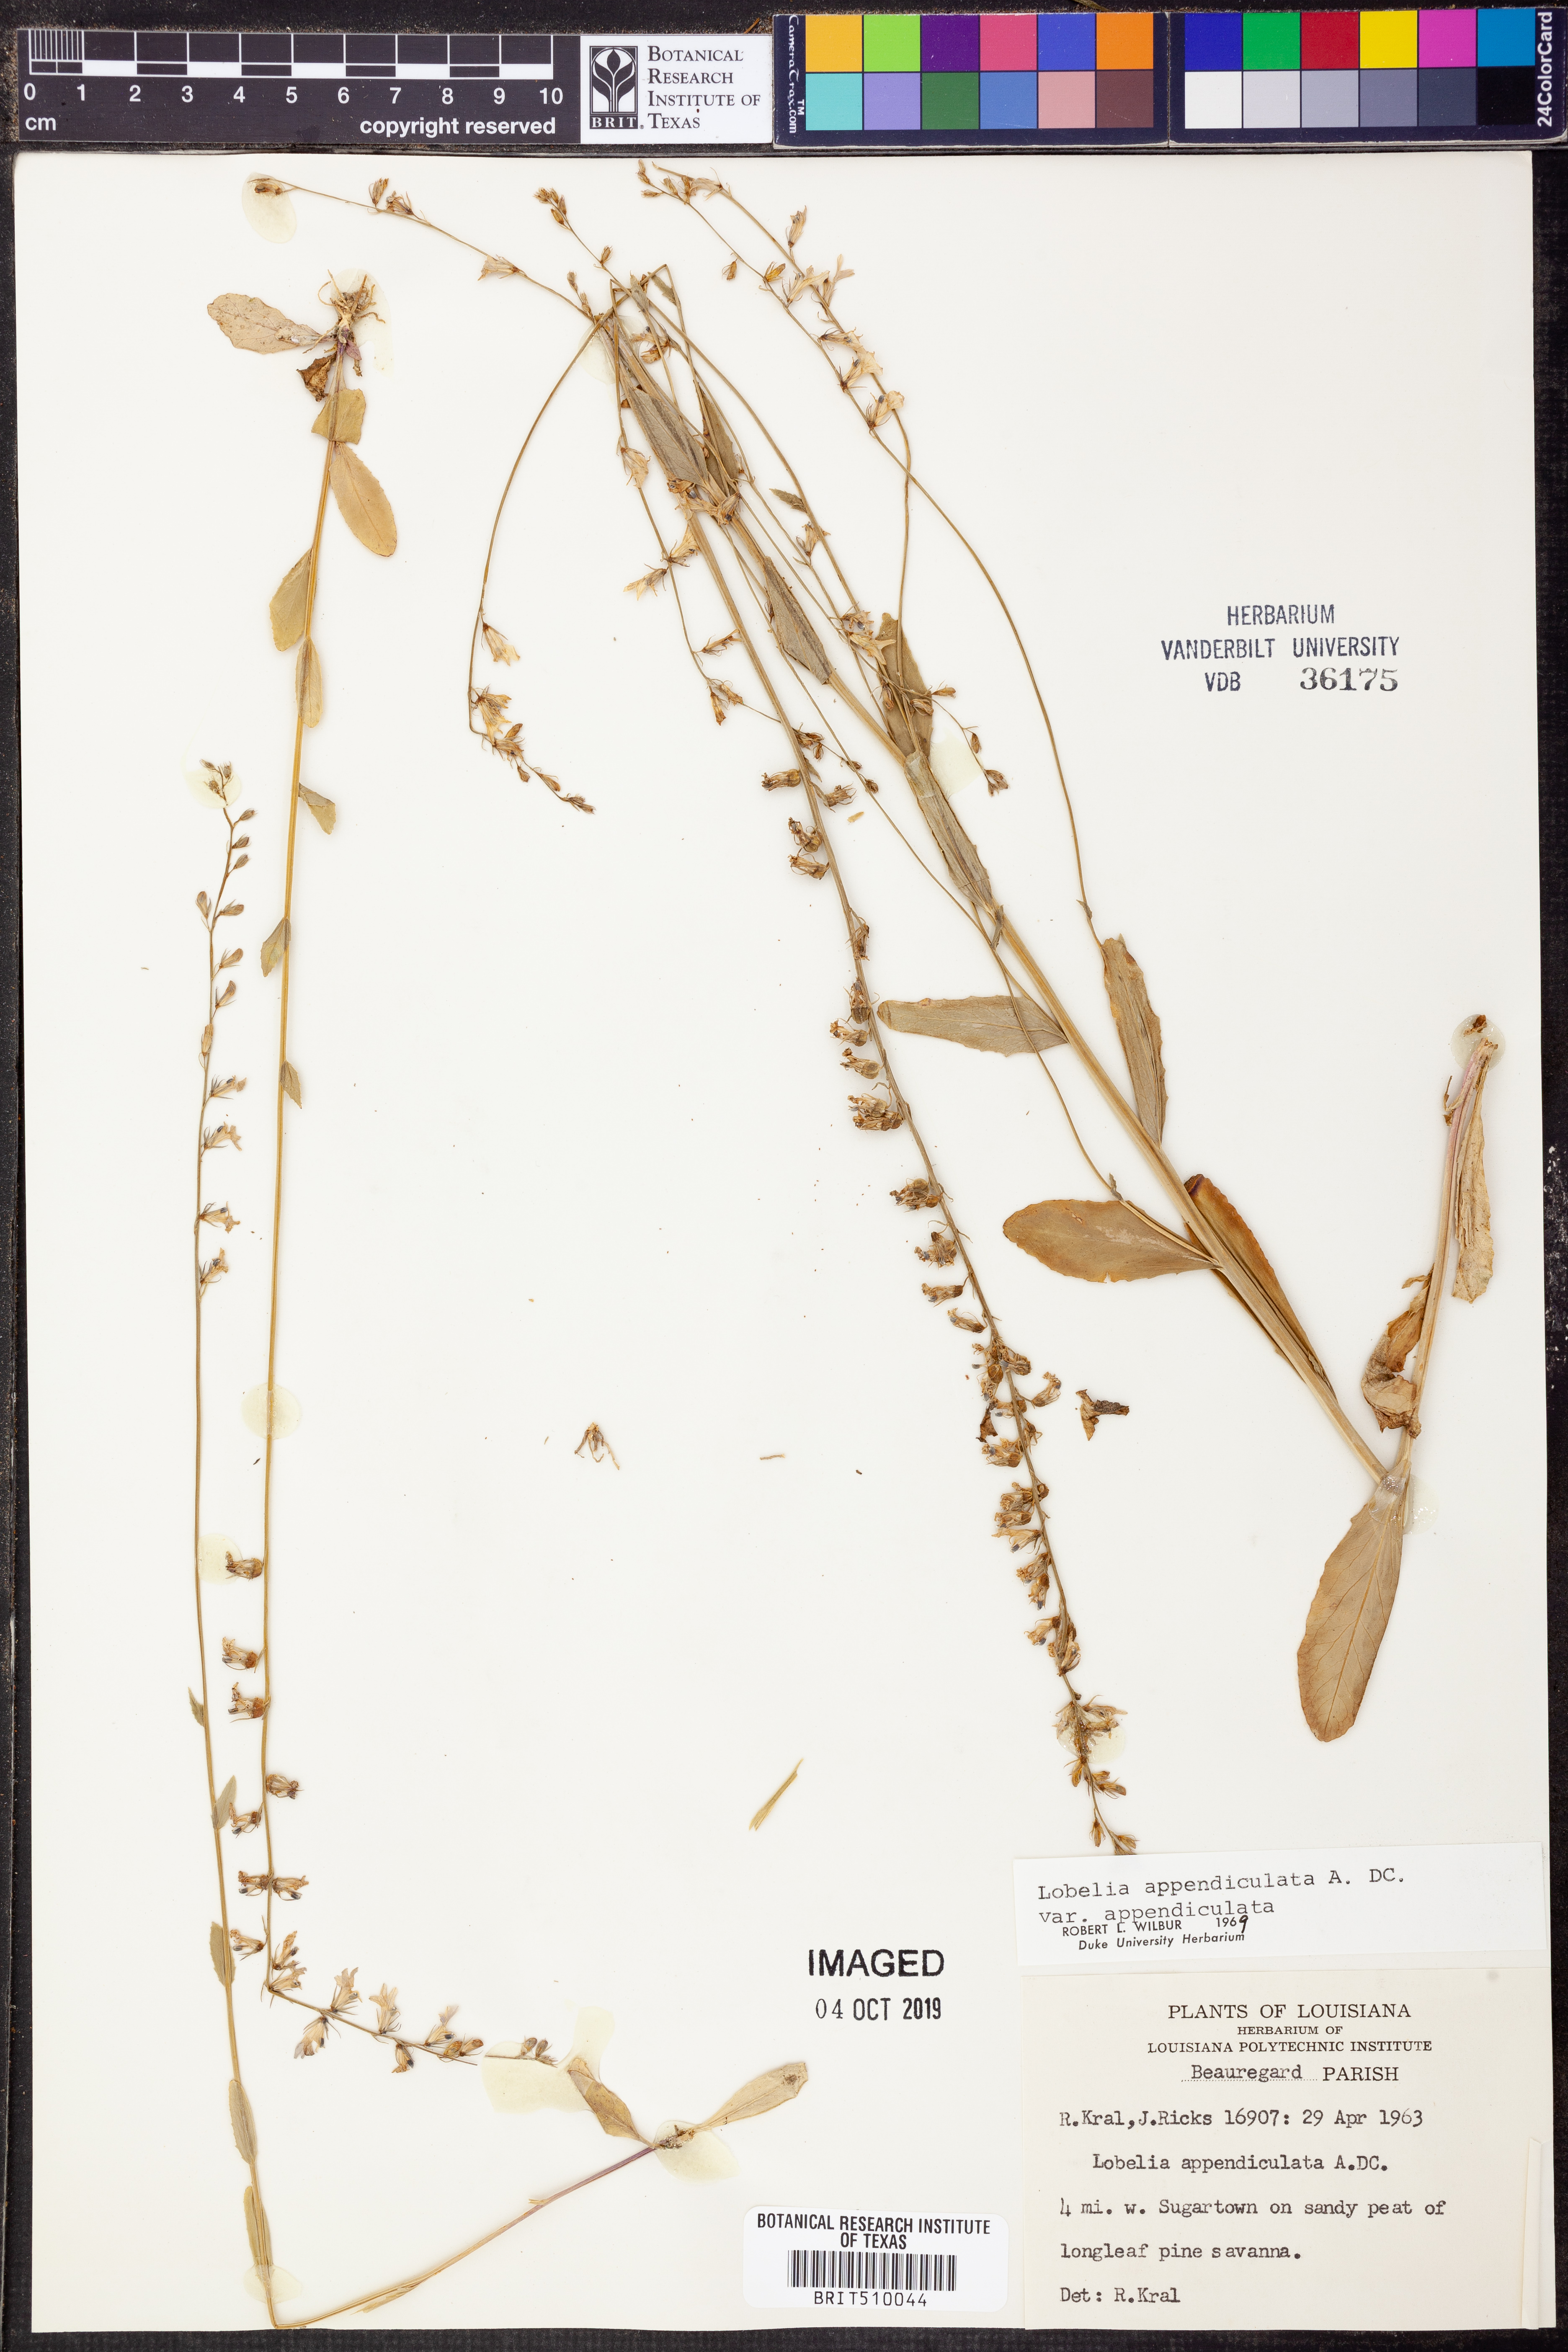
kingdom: Plantae
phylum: Tracheophyta
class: Magnoliopsida
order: Asterales
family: Campanulaceae
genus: Lobelia
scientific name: Lobelia appendiculata
